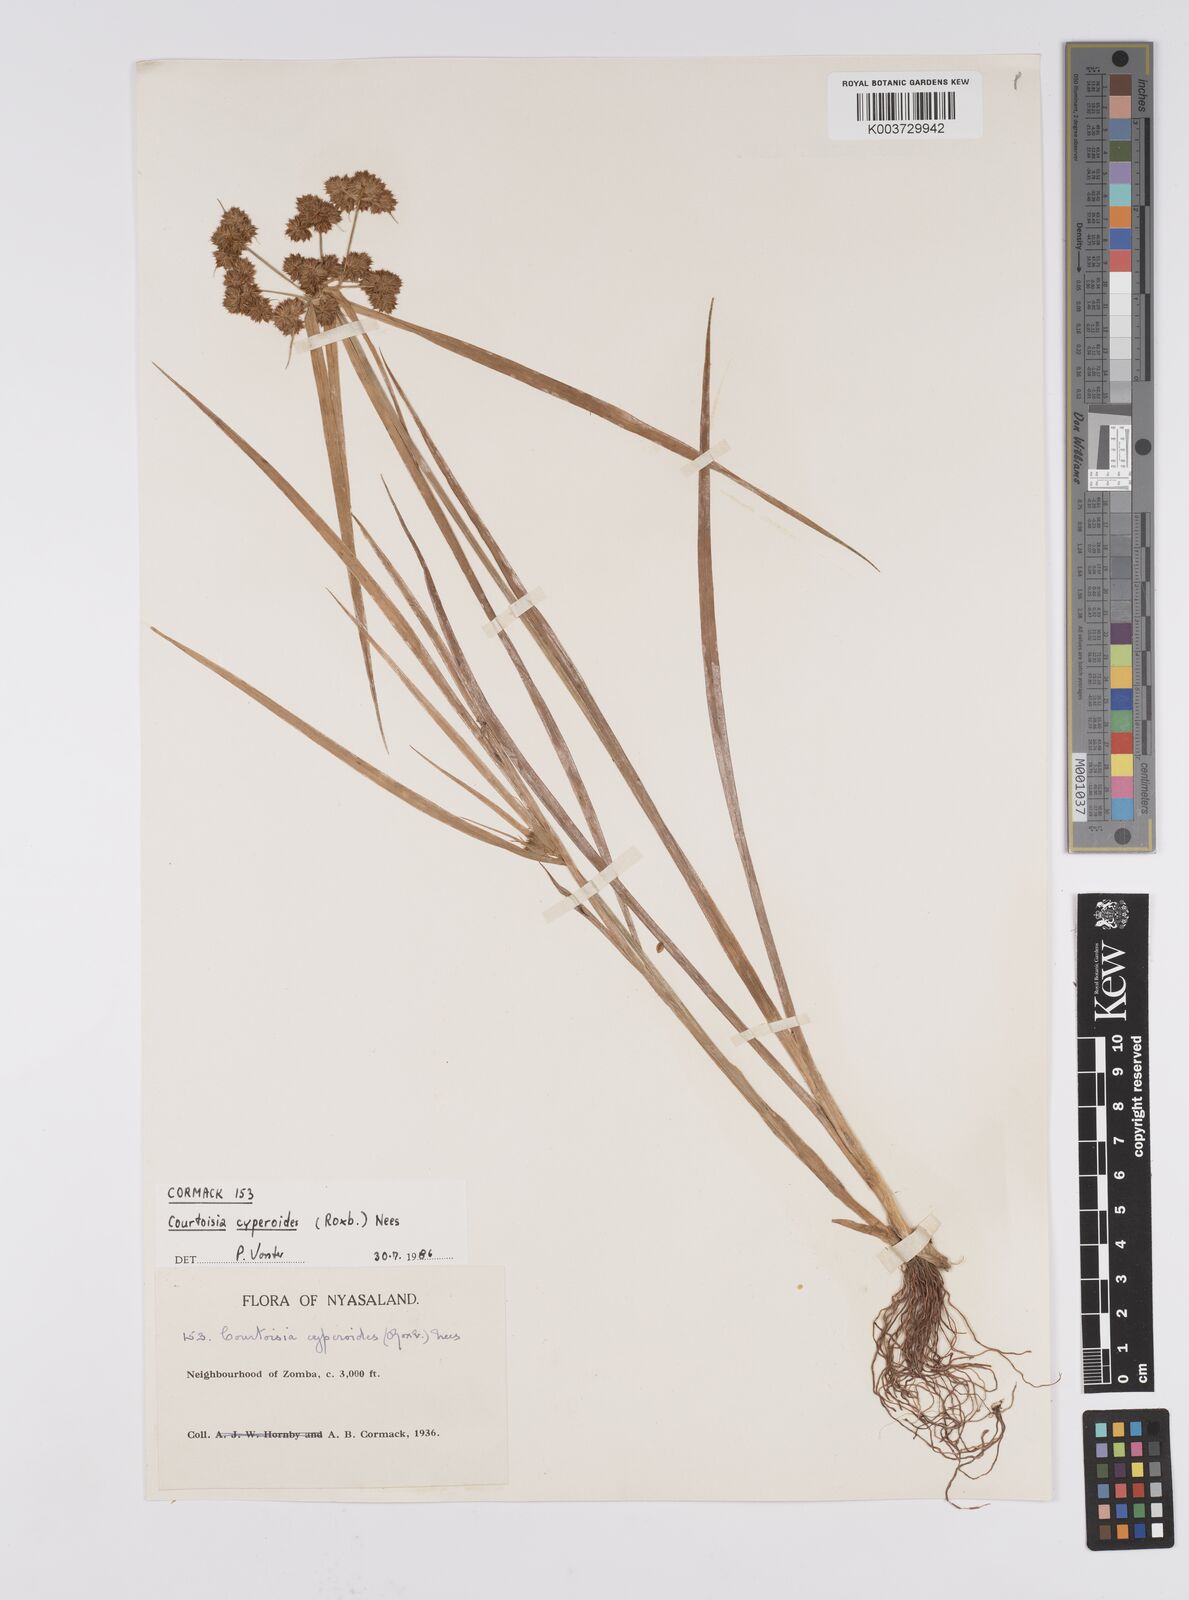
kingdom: Plantae
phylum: Tracheophyta
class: Liliopsida
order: Poales
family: Cyperaceae
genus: Cyperus
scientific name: Cyperus cyperoides
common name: Pacific island flat sedge
